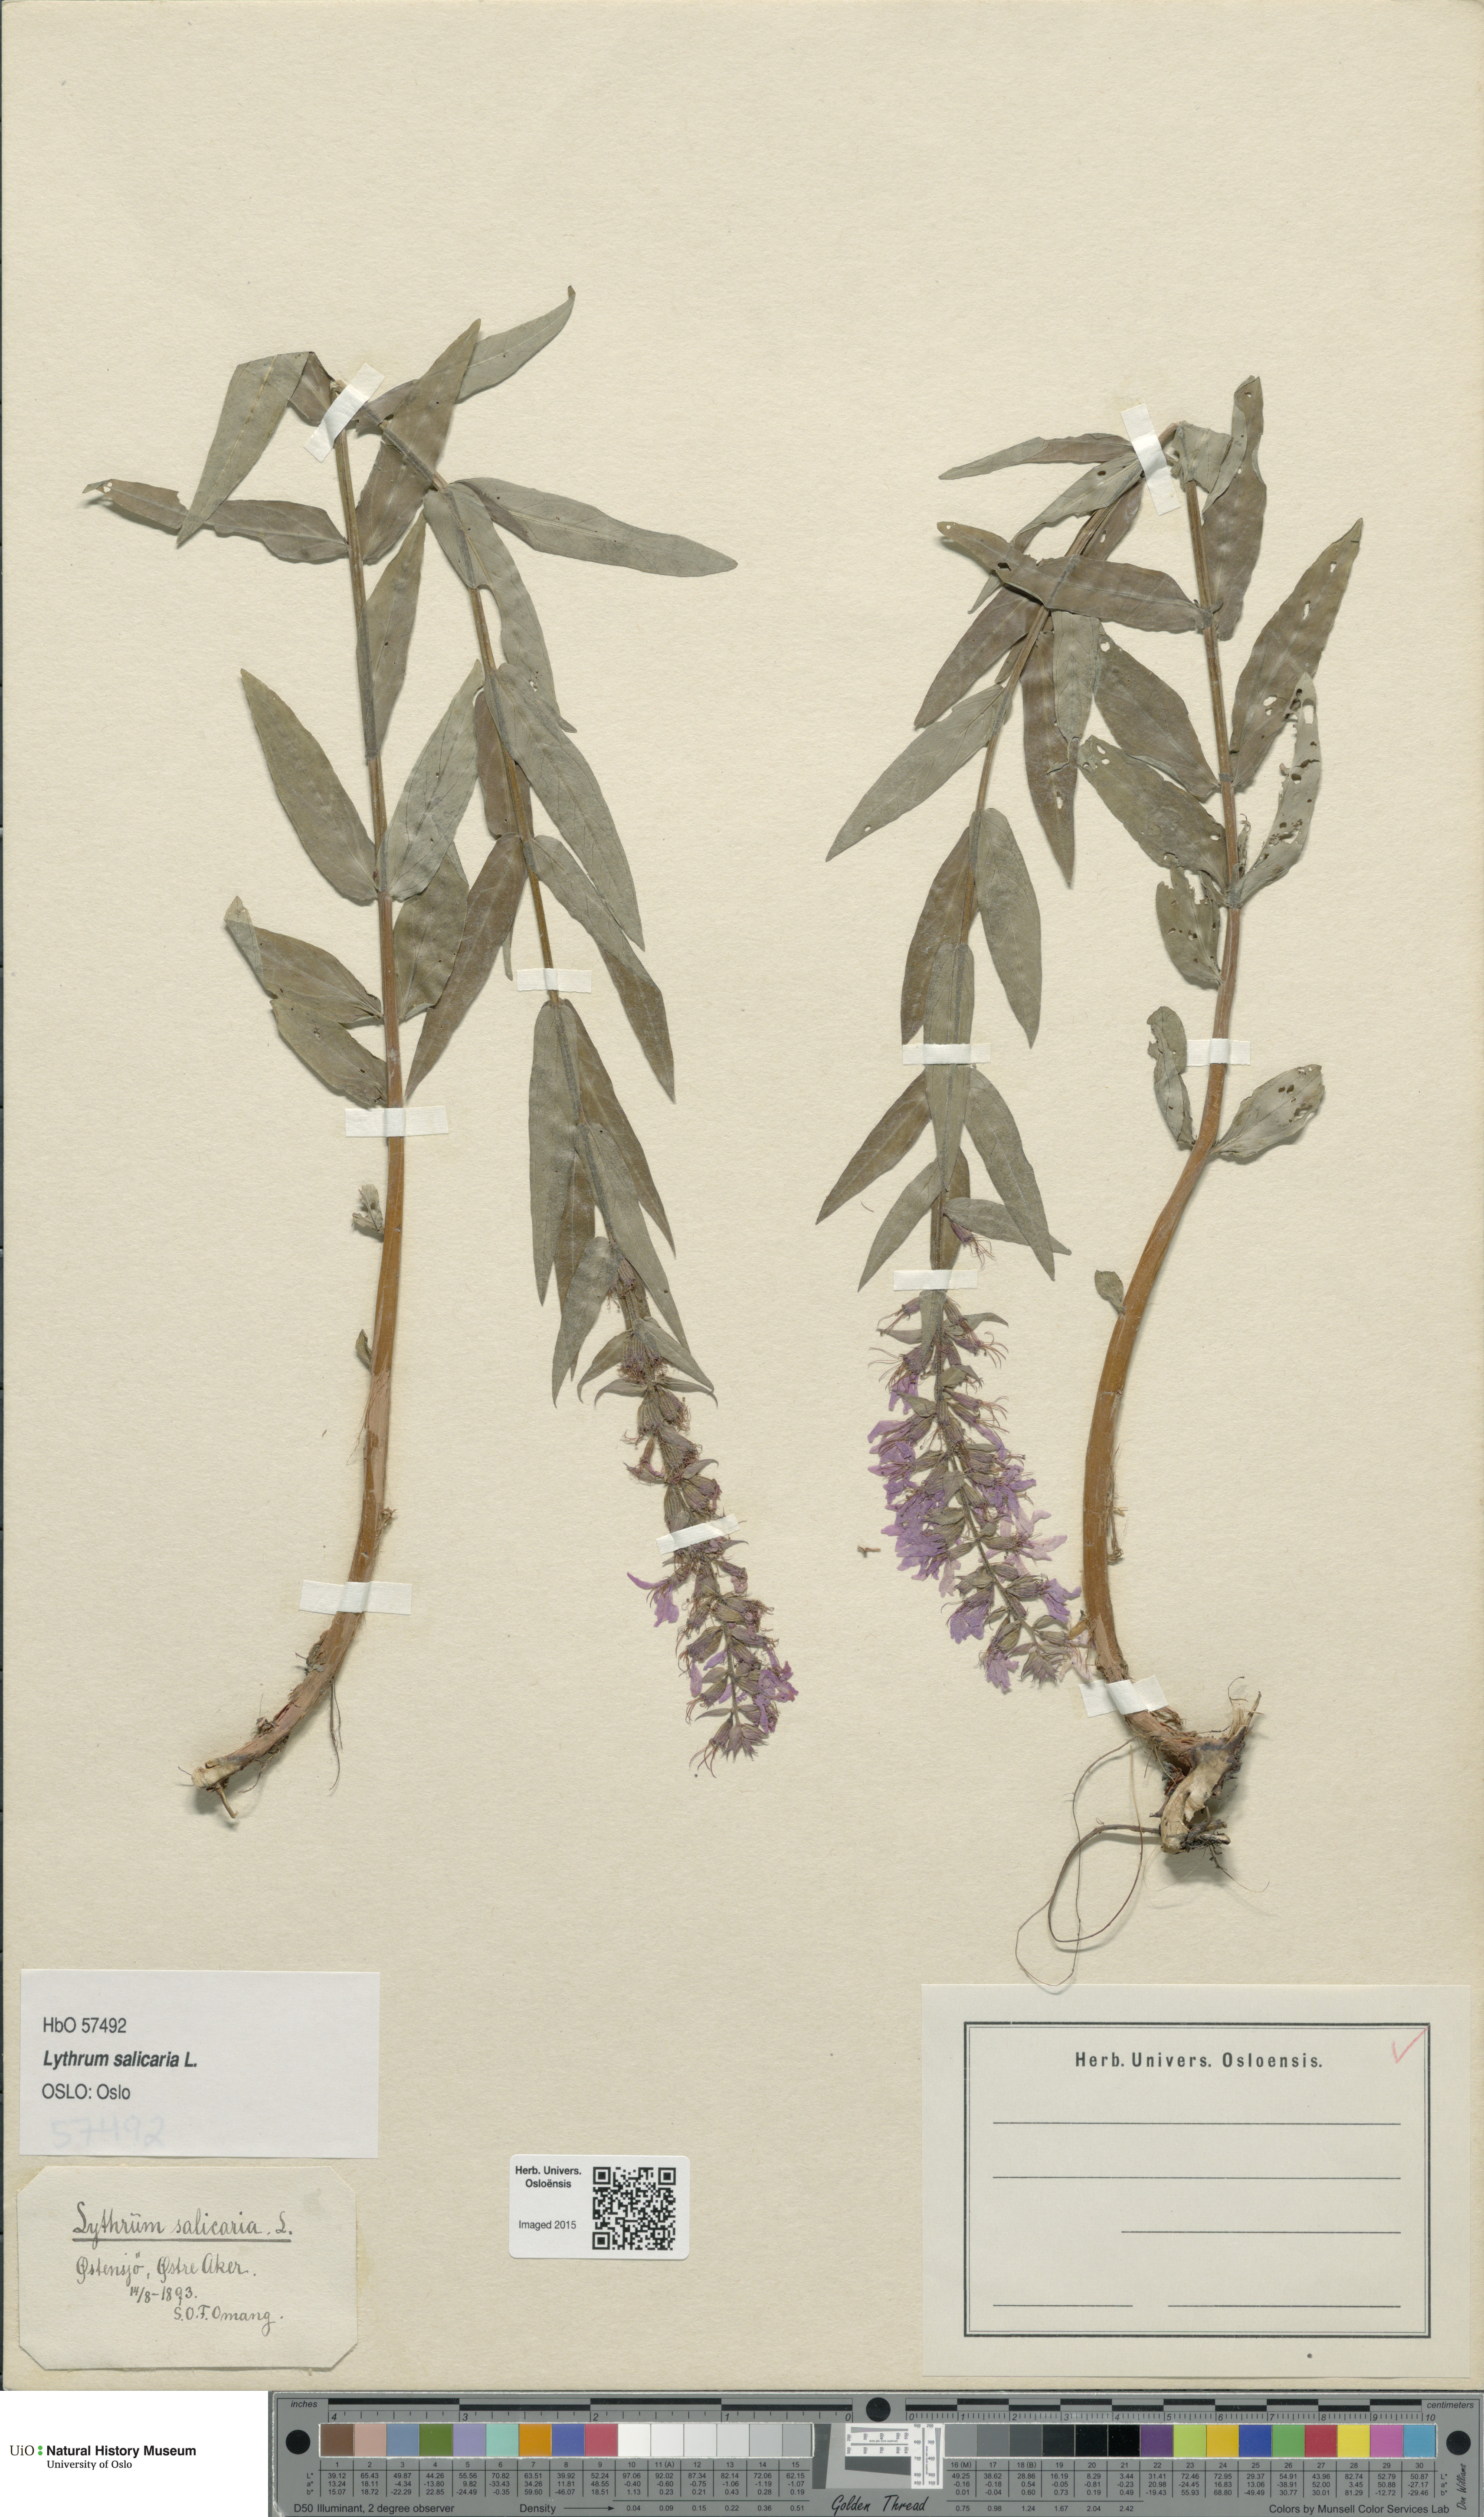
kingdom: Plantae
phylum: Tracheophyta
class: Magnoliopsida
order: Myrtales
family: Lythraceae
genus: Lythrum
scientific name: Lythrum salicaria
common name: Purple loosestrife
